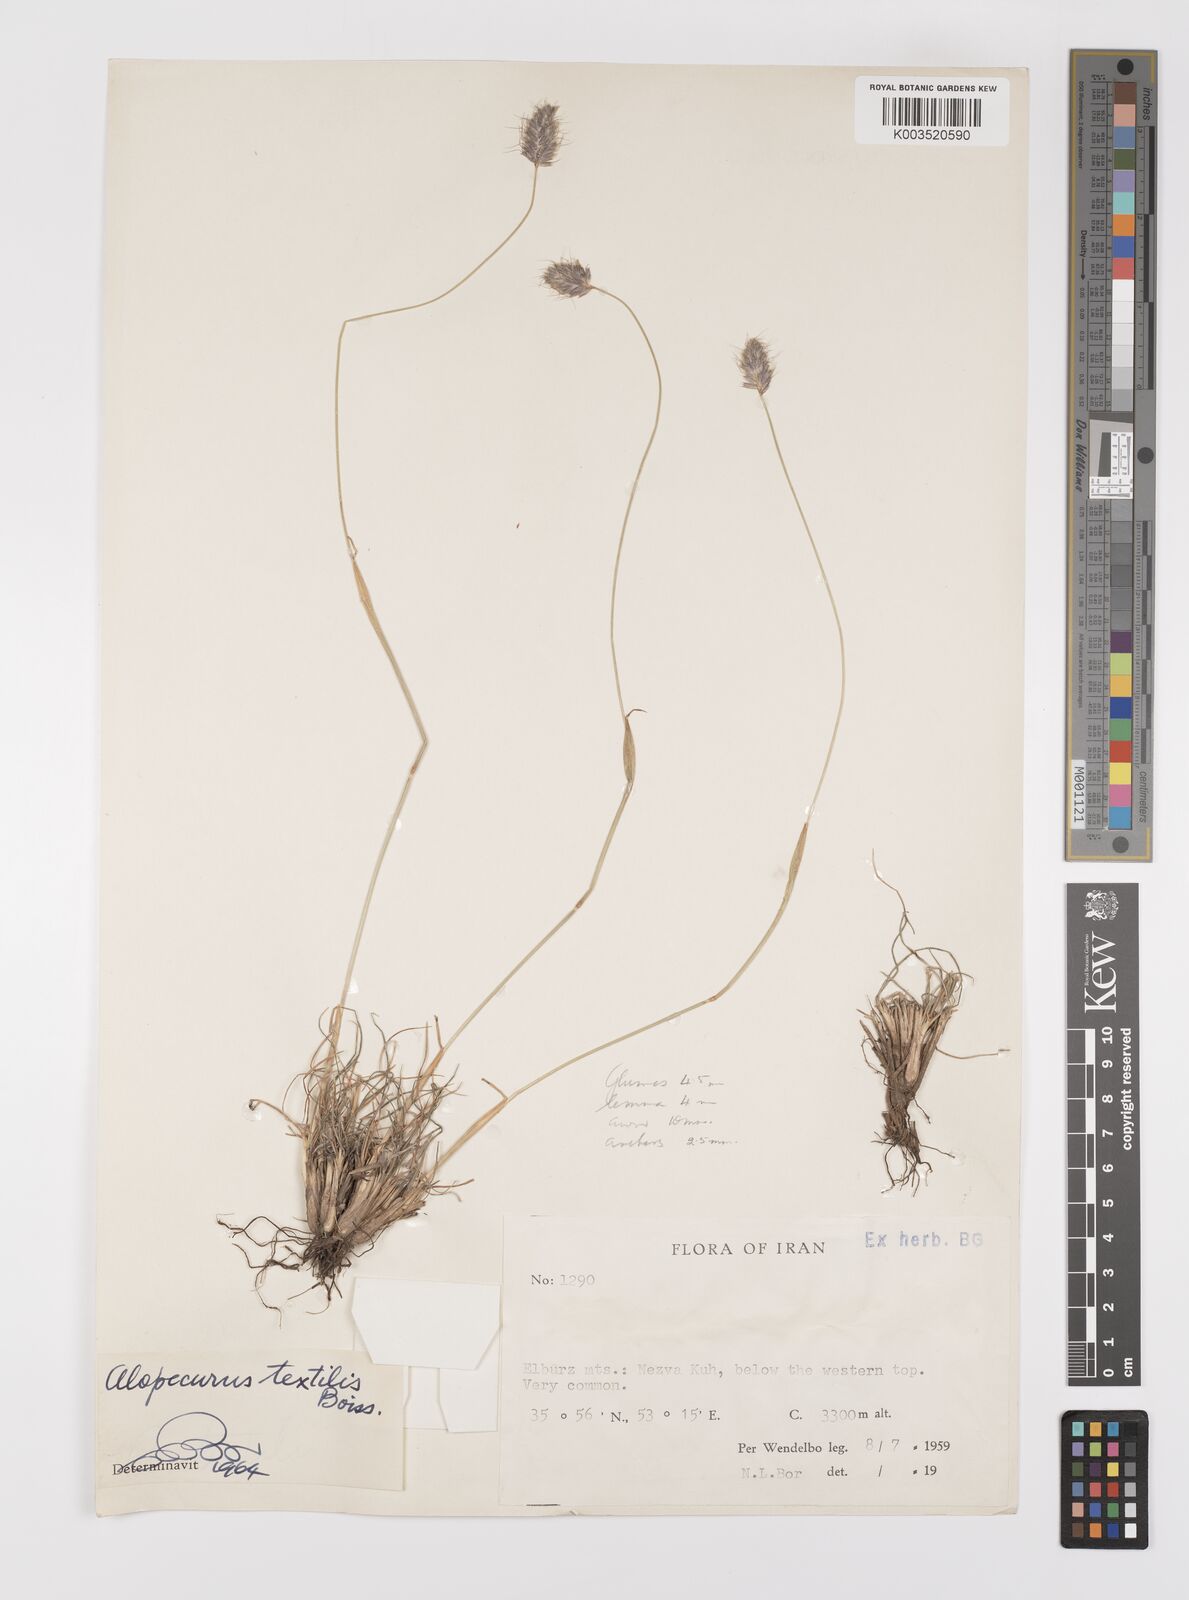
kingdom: Plantae
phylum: Tracheophyta
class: Liliopsida
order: Poales
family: Poaceae
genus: Alopecurus
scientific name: Alopecurus textilis
